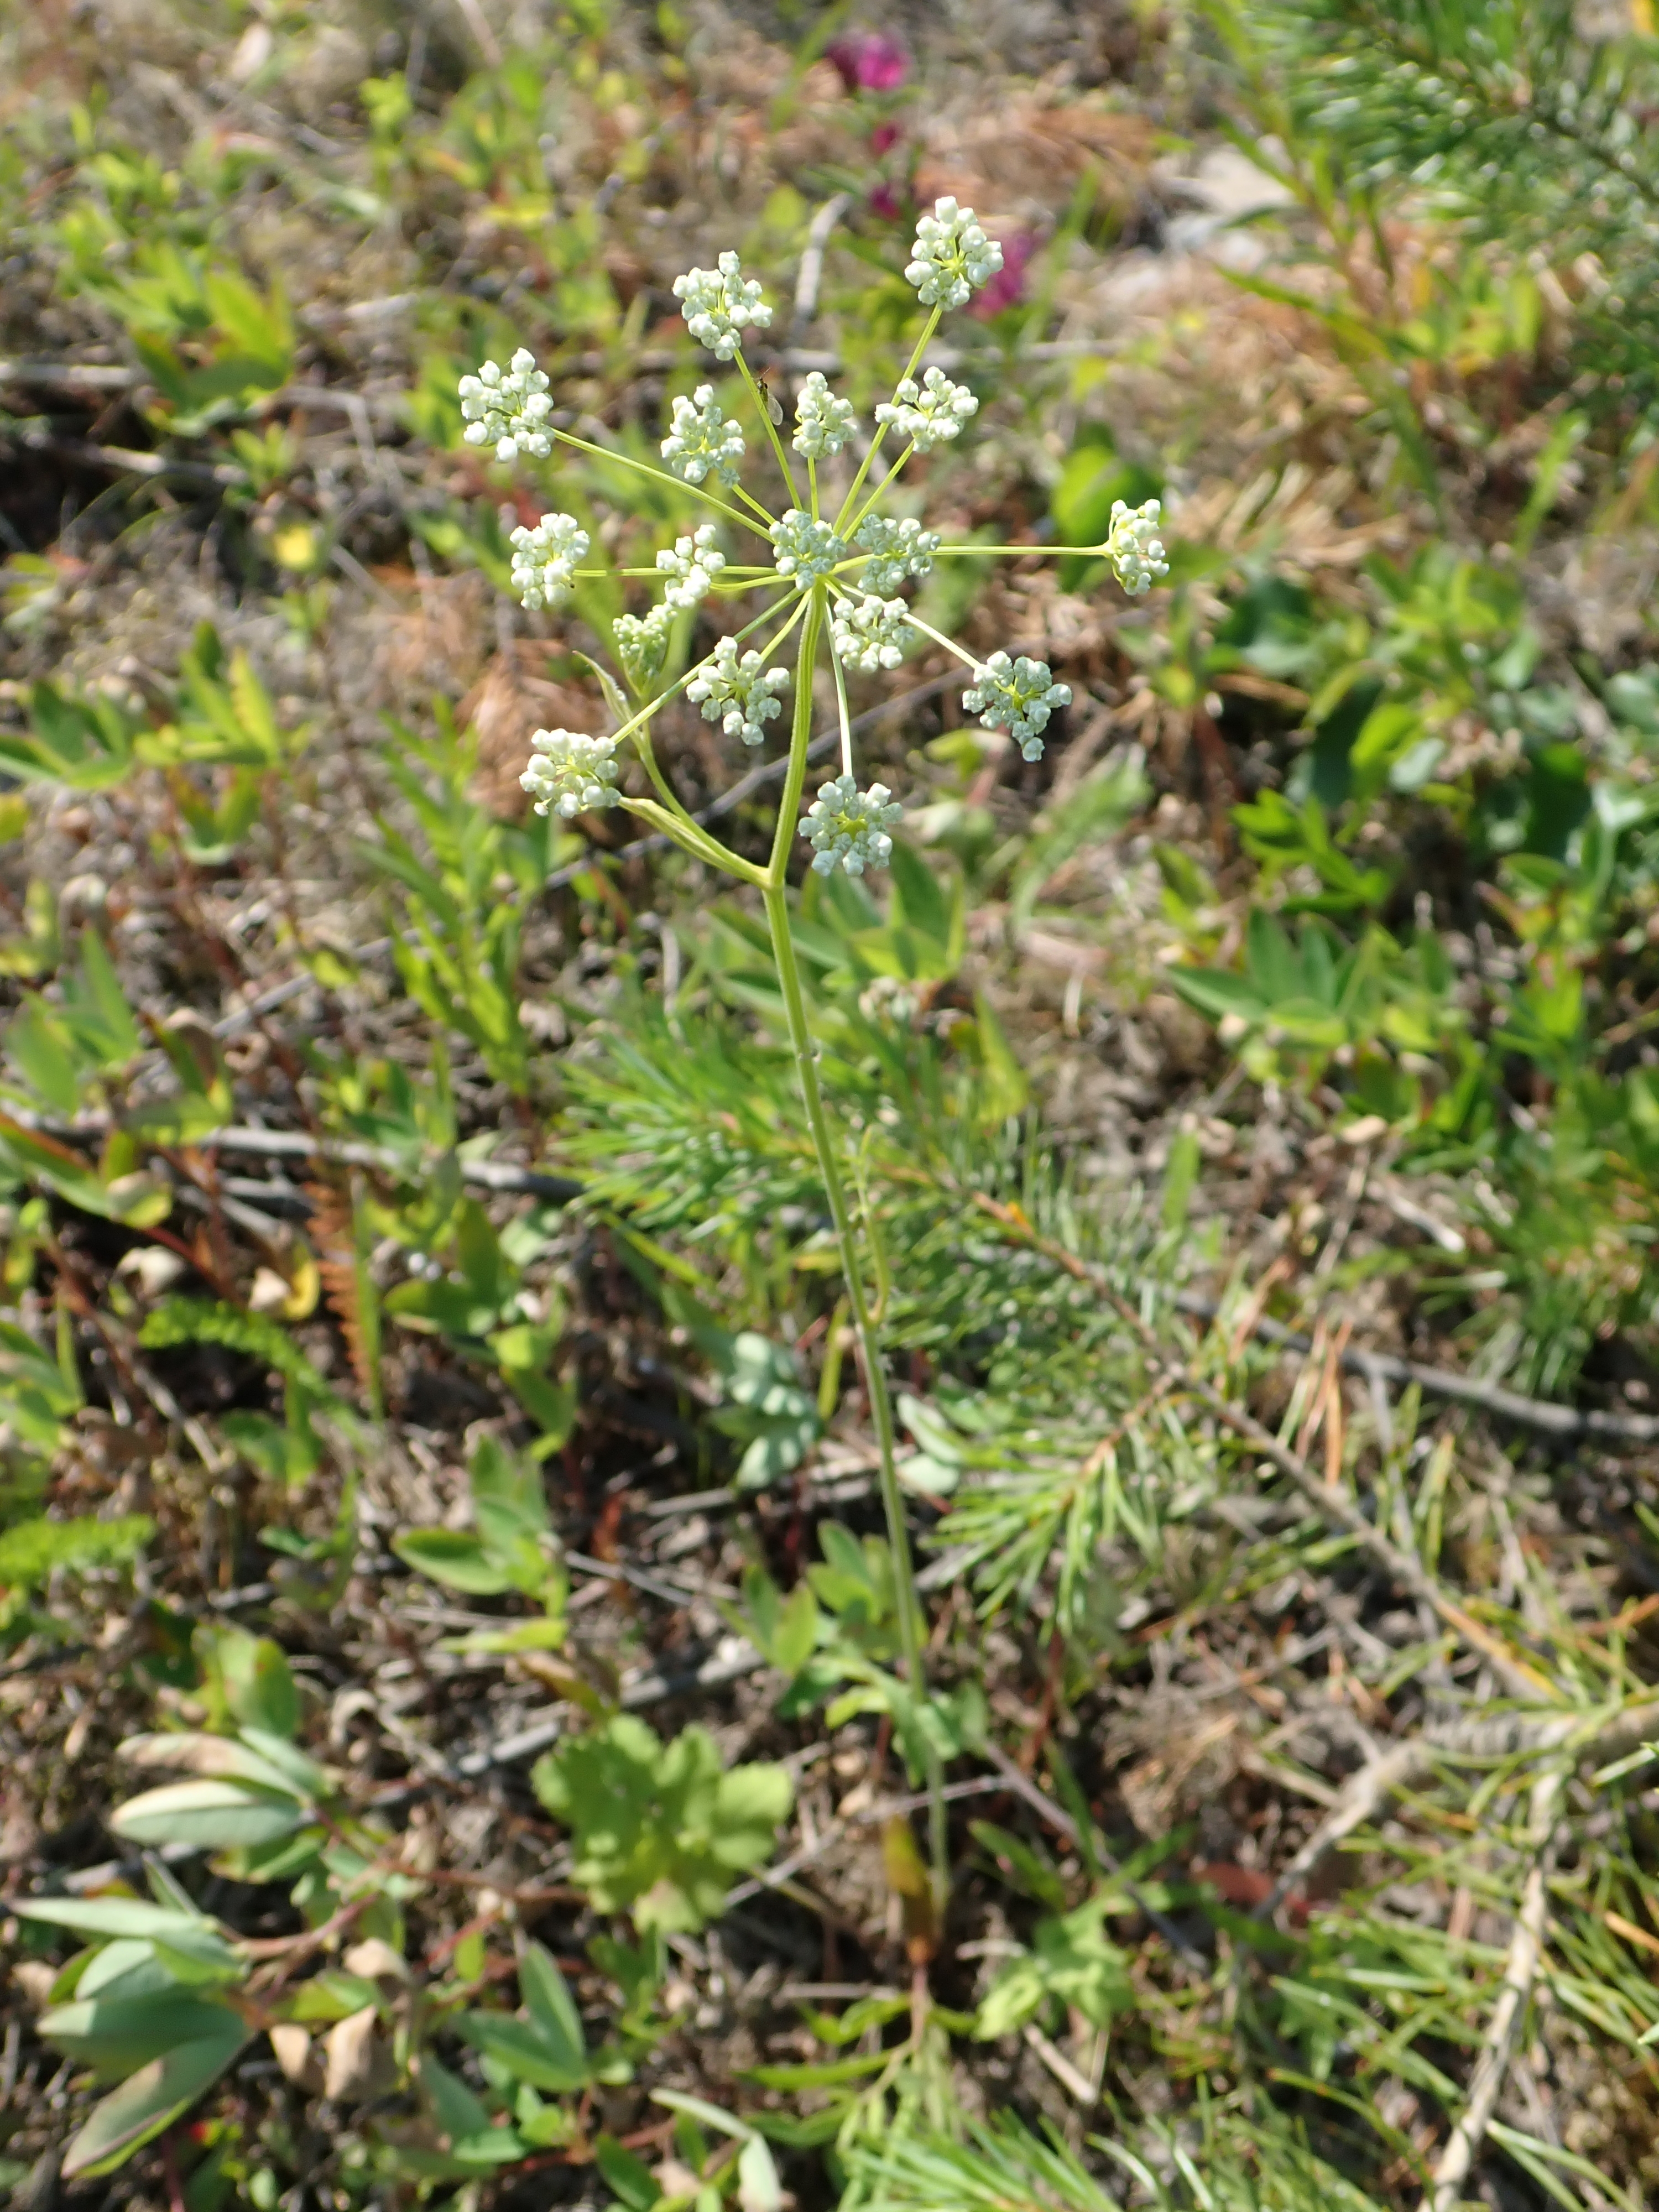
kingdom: Plantae
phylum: Tracheophyta
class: Magnoliopsida
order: Apiales
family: Apiaceae
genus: Pimpinella
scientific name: Pimpinella saxifraga
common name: Burnet-saxifrage
